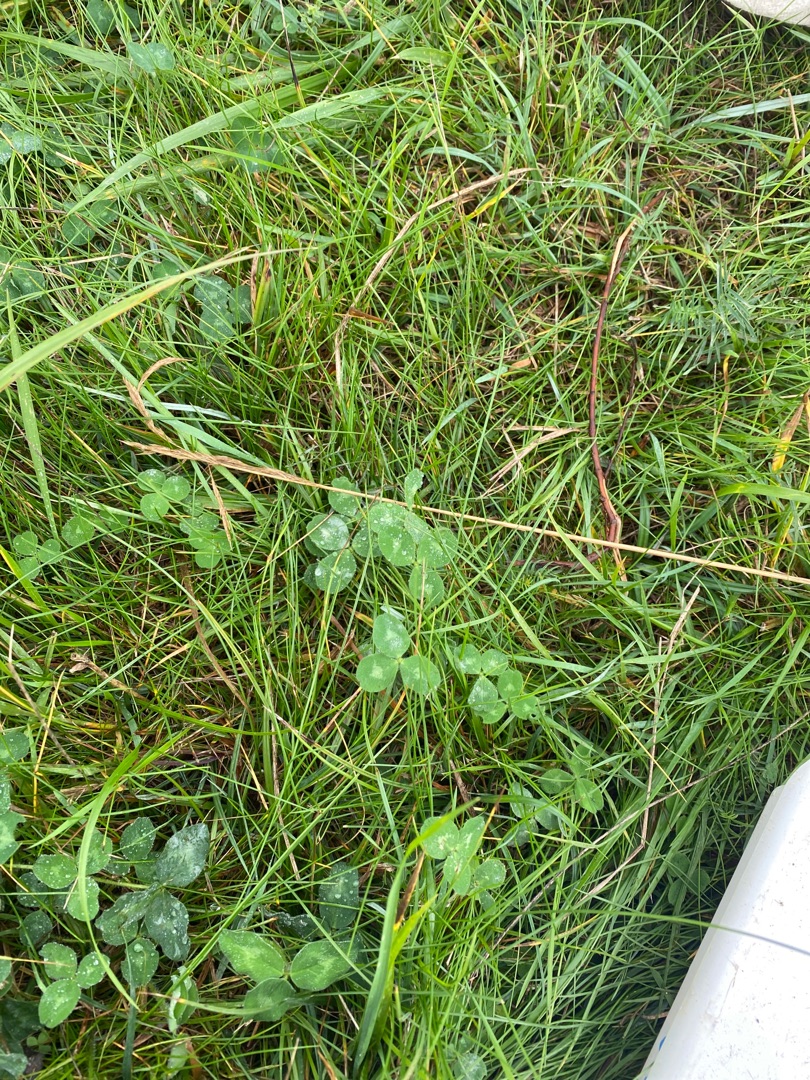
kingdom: Plantae
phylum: Tracheophyta
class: Magnoliopsida
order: Fabales
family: Fabaceae
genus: Trifolium
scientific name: Trifolium repens
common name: Hvid-kløver
